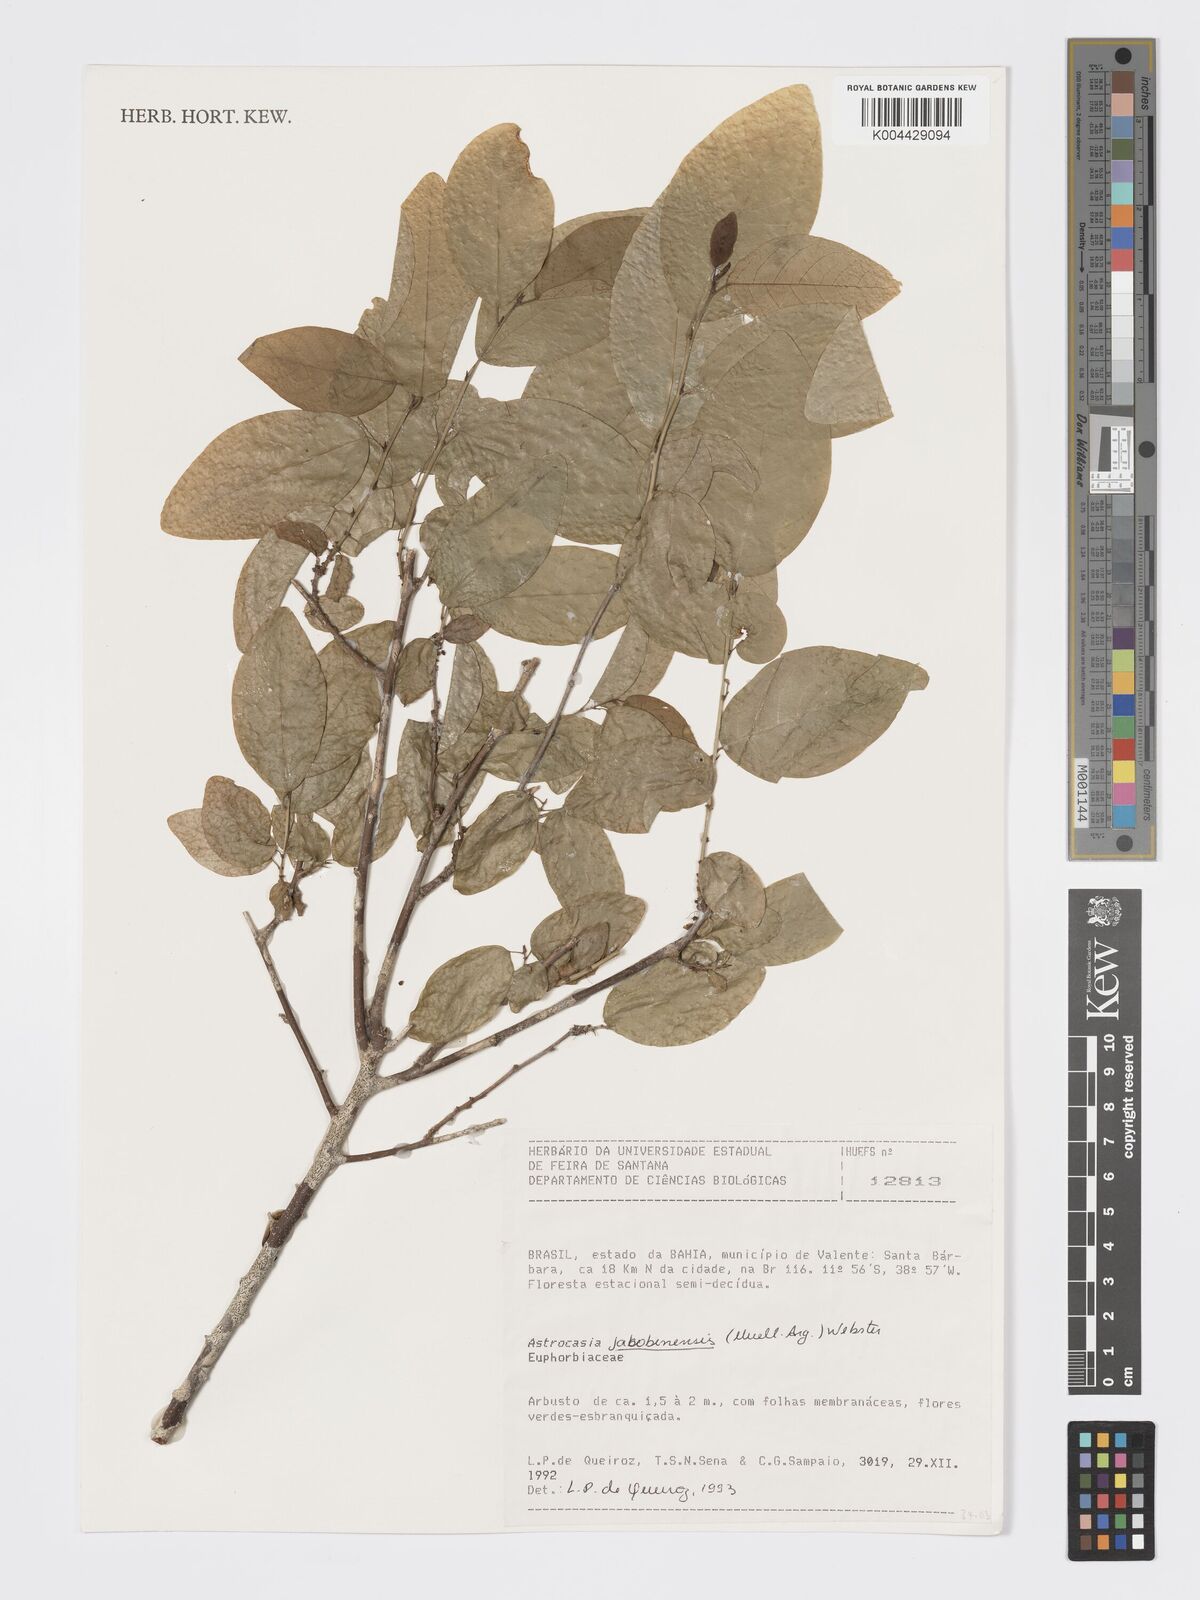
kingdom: Plantae
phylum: Tracheophyta
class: Magnoliopsida
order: Malpighiales
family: Phyllanthaceae
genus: Astrocasia
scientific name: Astrocasia jacobinensis
